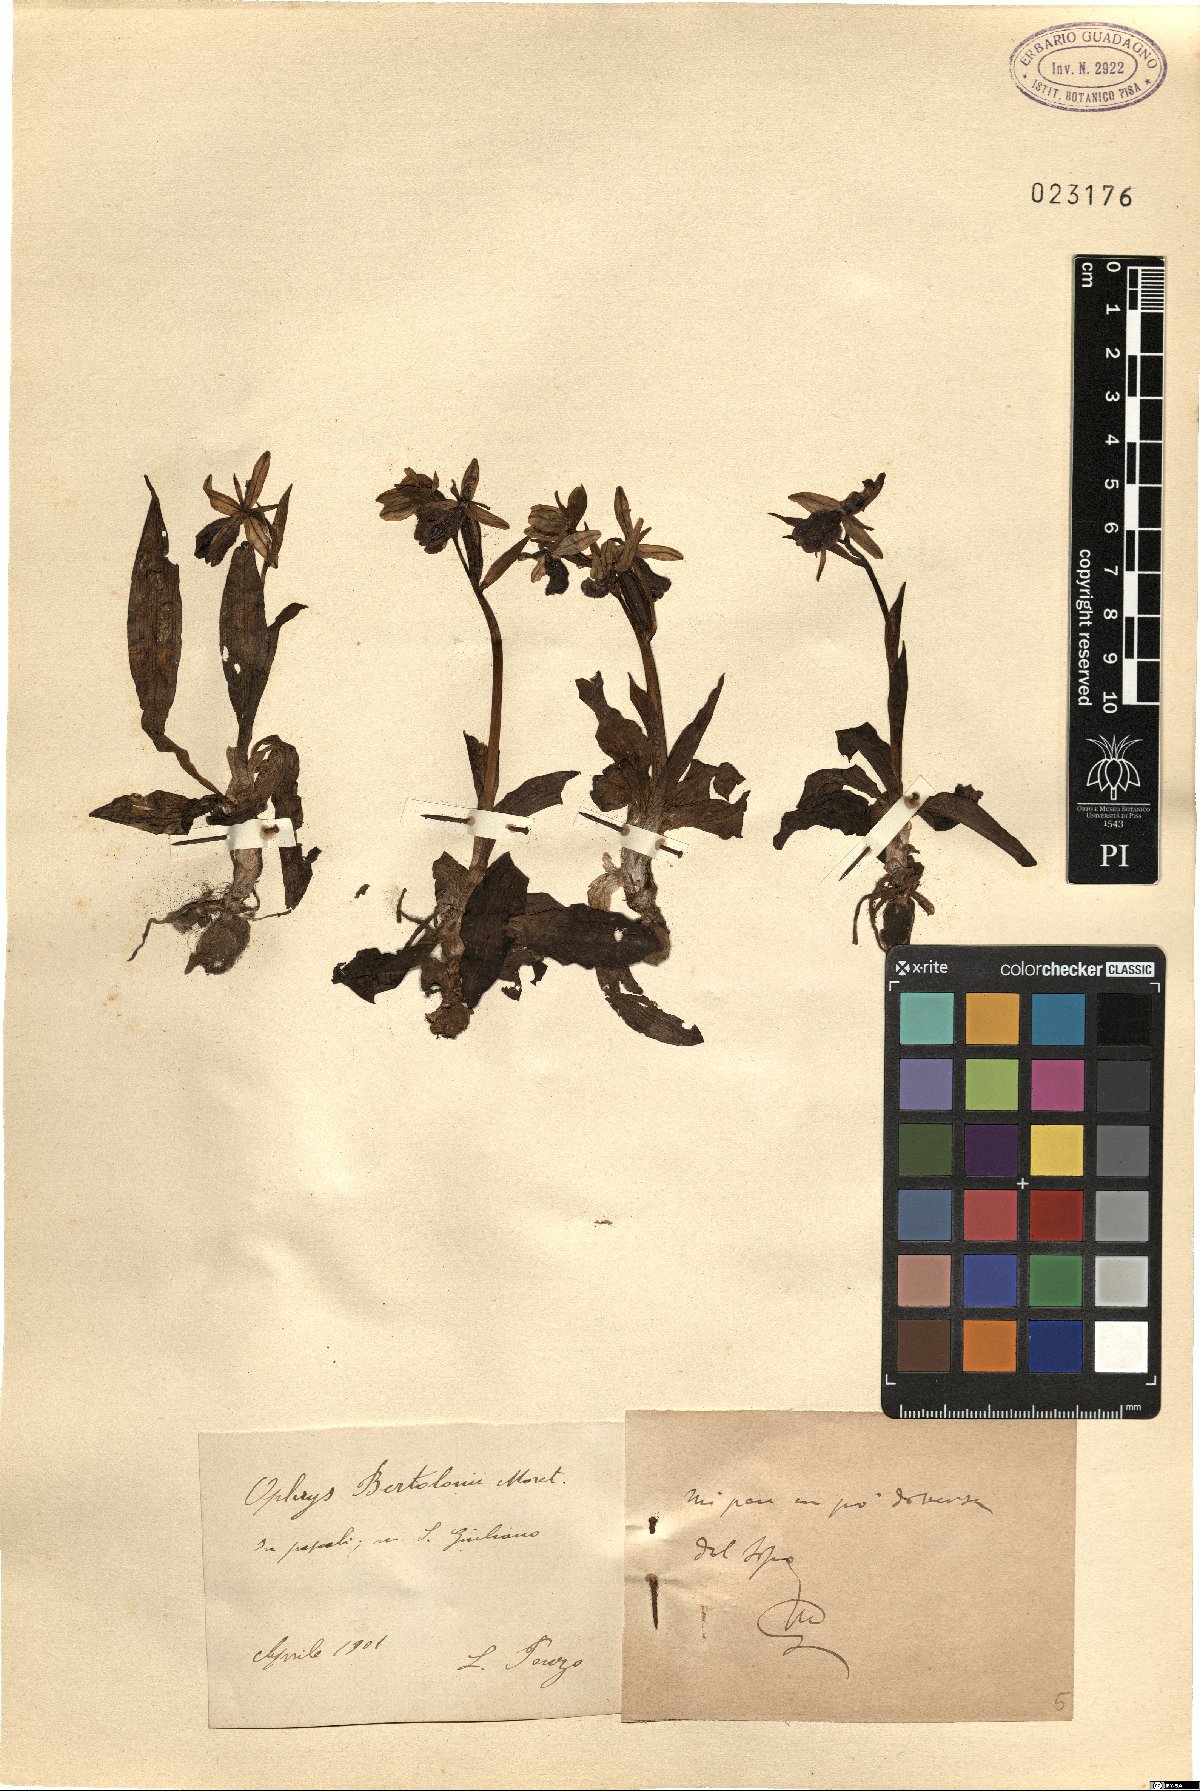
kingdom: Plantae
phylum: Tracheophyta
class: Liliopsida
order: Asparagales
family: Orchidaceae
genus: Ophrys
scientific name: Ophrys bertolonii
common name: Bertoloni's bee orchid
